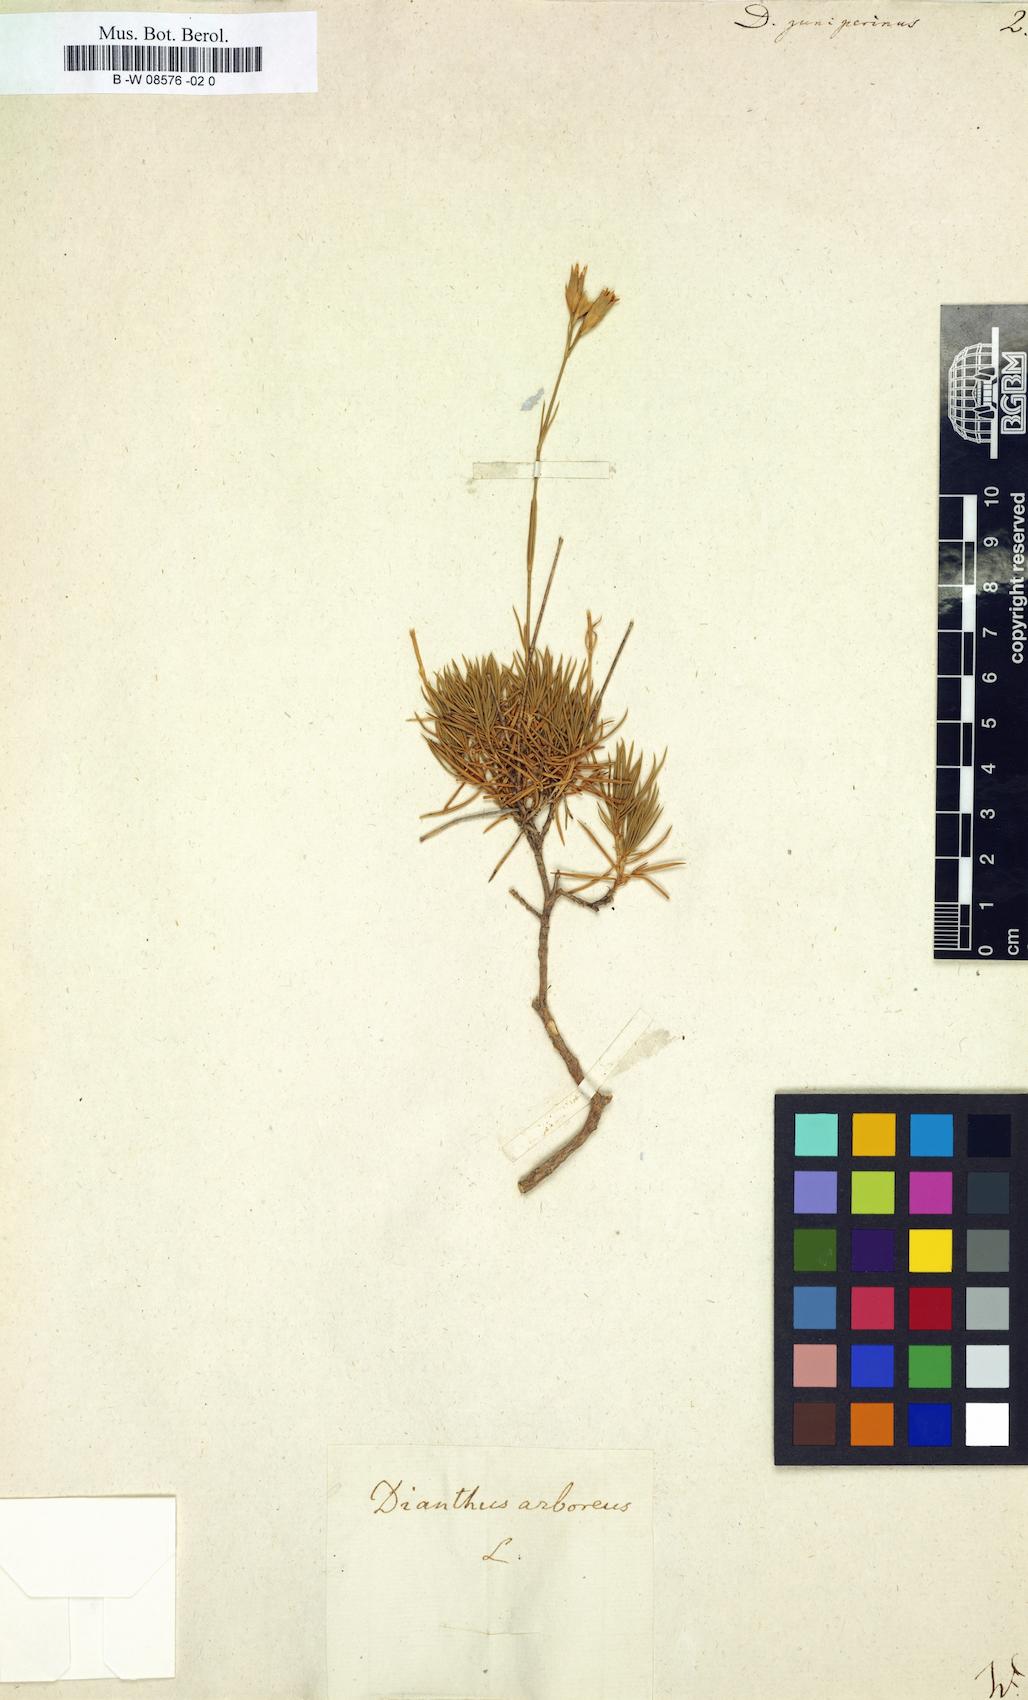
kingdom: Plantae
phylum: Tracheophyta
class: Magnoliopsida
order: Caryophyllales
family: Caryophyllaceae
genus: Dianthus
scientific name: Dianthus juniperinus
